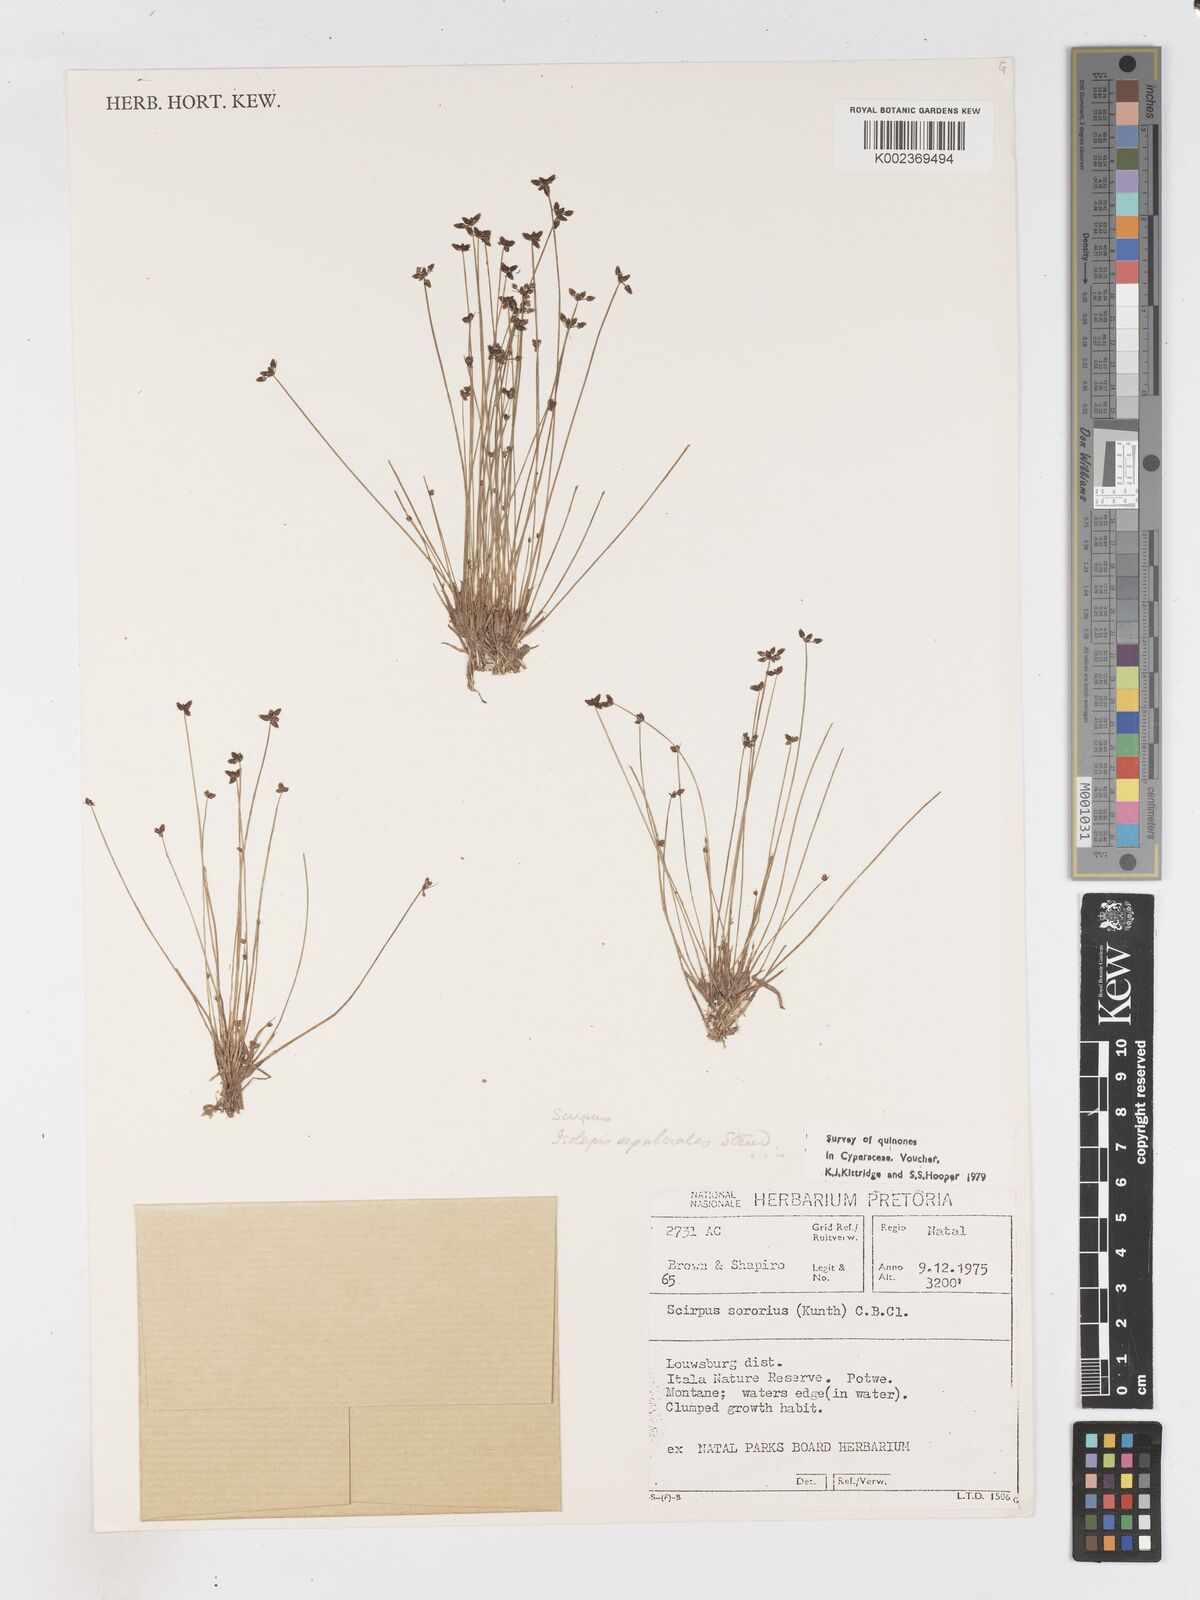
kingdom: Plantae
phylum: Tracheophyta
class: Liliopsida
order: Poales
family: Cyperaceae
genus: Isolepis
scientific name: Isolepis sepulcralis
